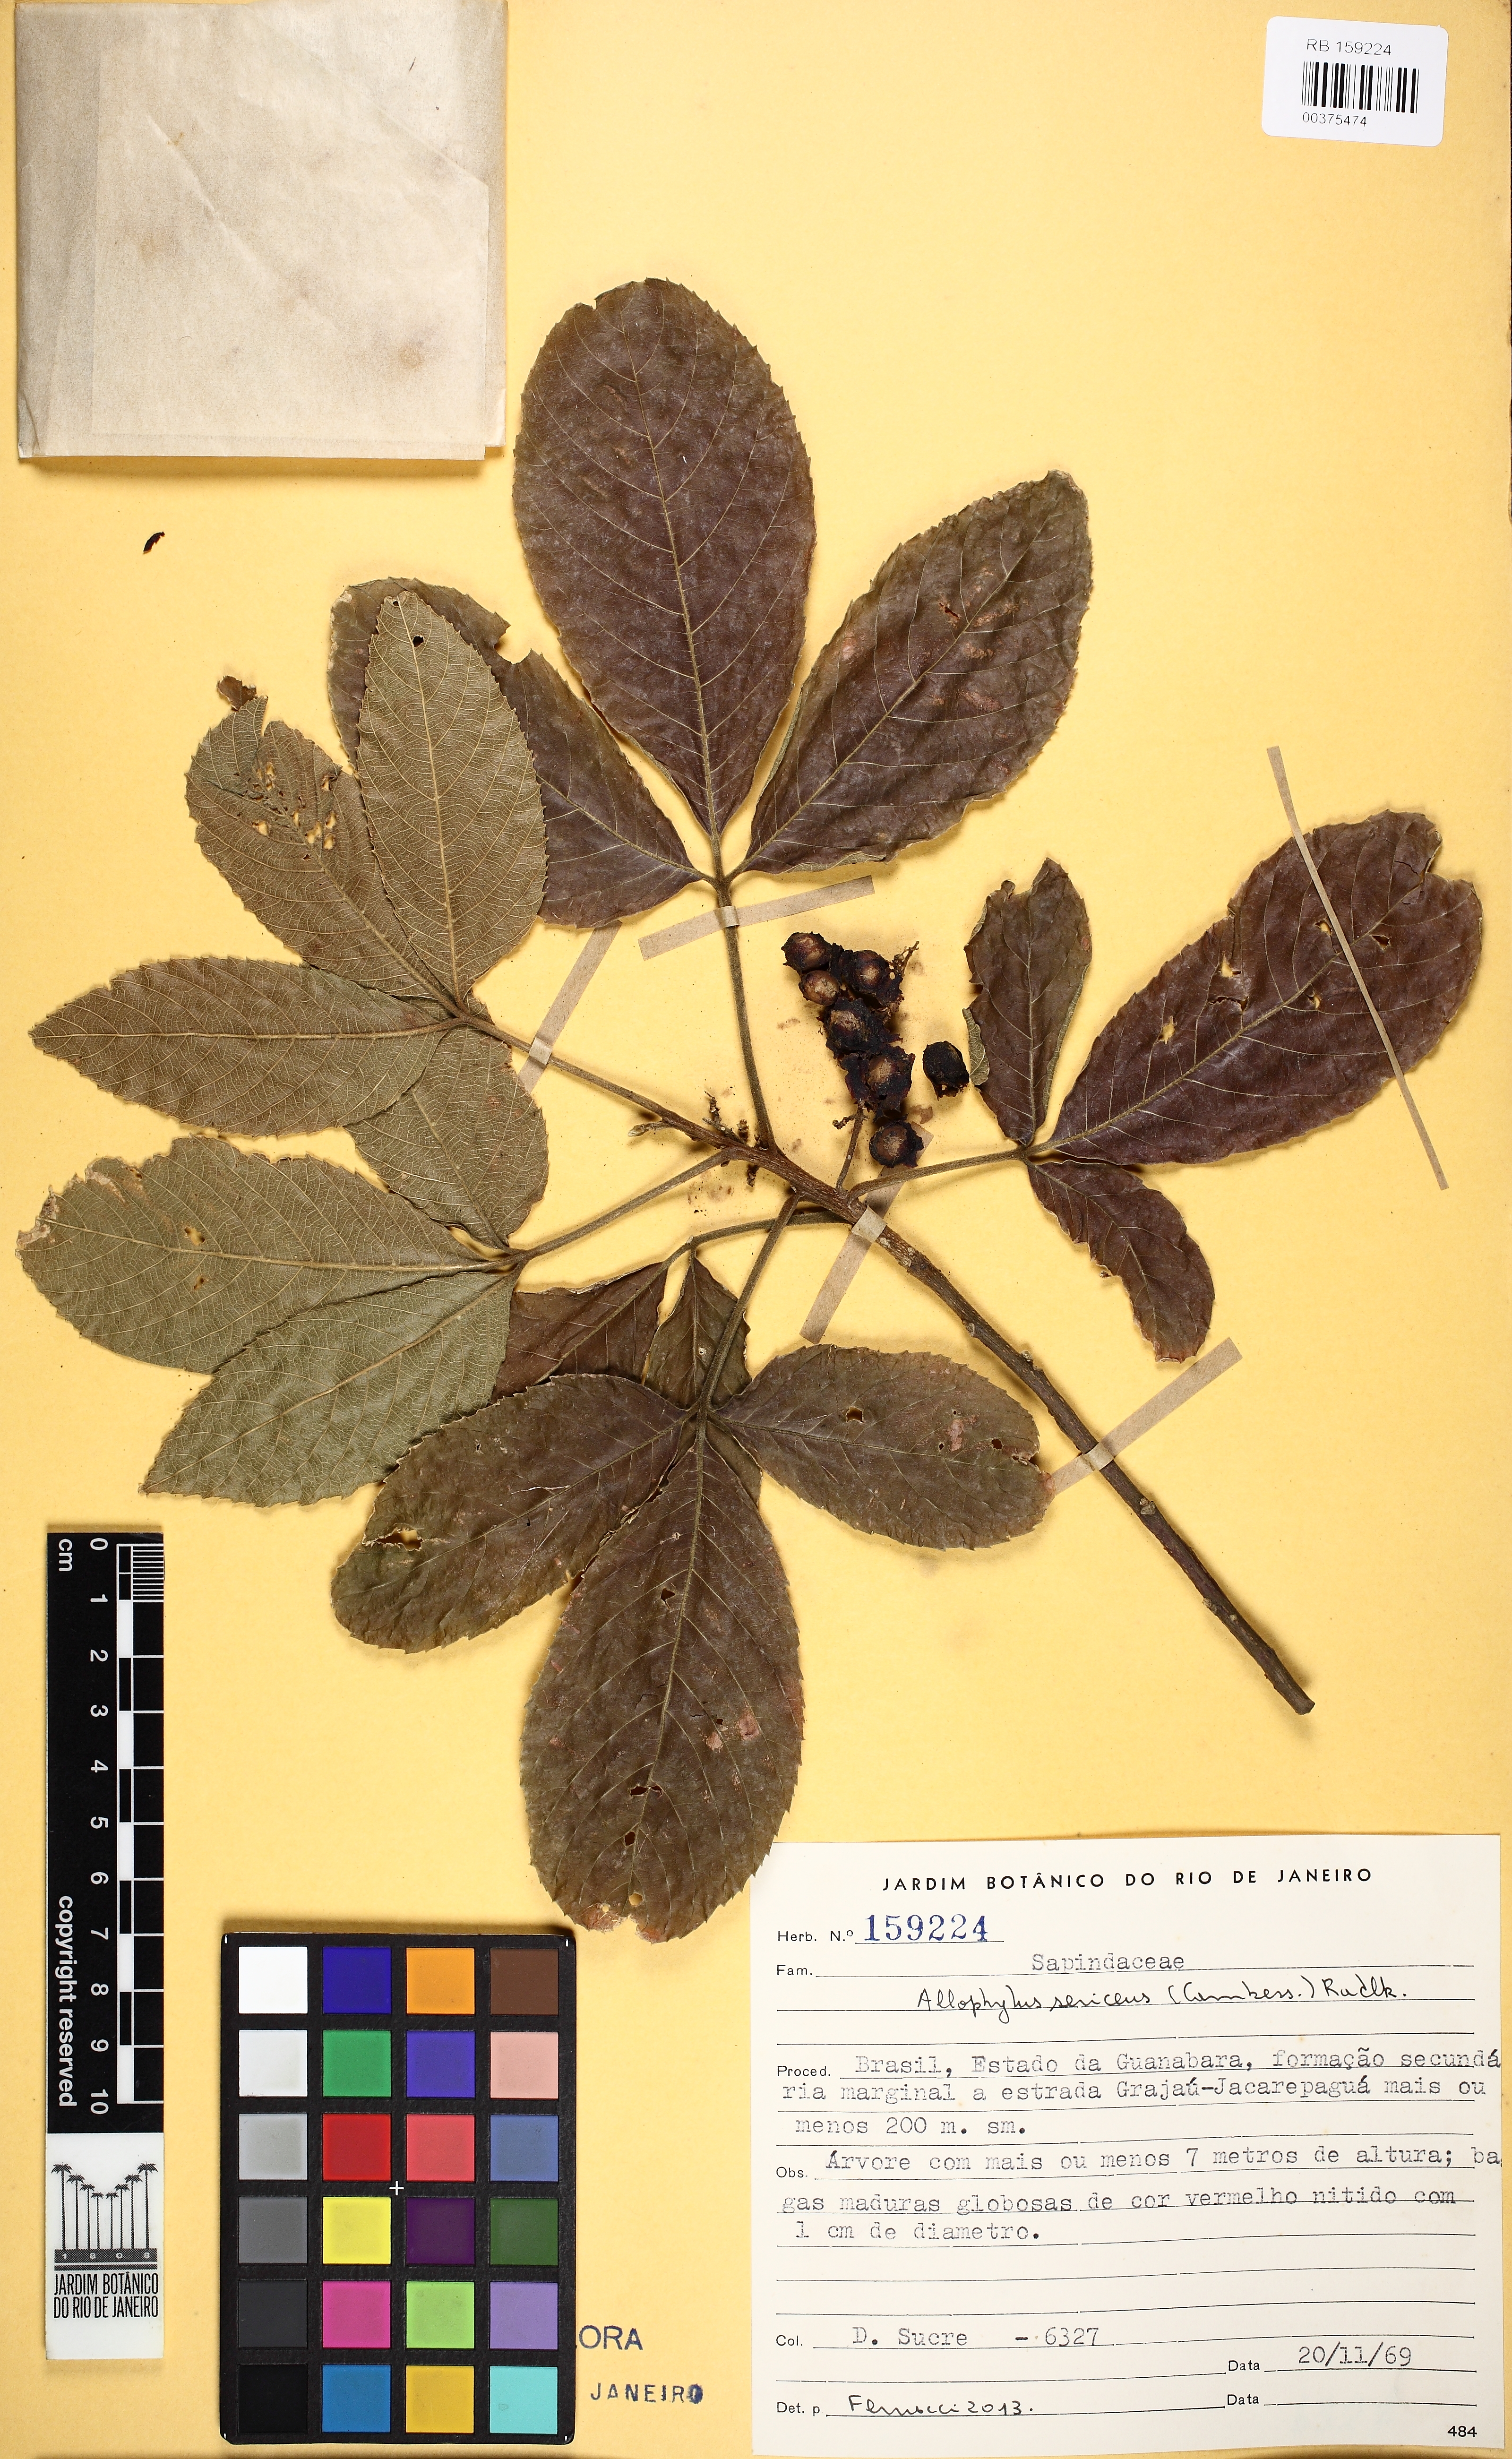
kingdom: Plantae
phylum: Tracheophyta
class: Magnoliopsida
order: Sapindales
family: Sapindaceae
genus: Allophylus
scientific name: Allophylus sericeus
